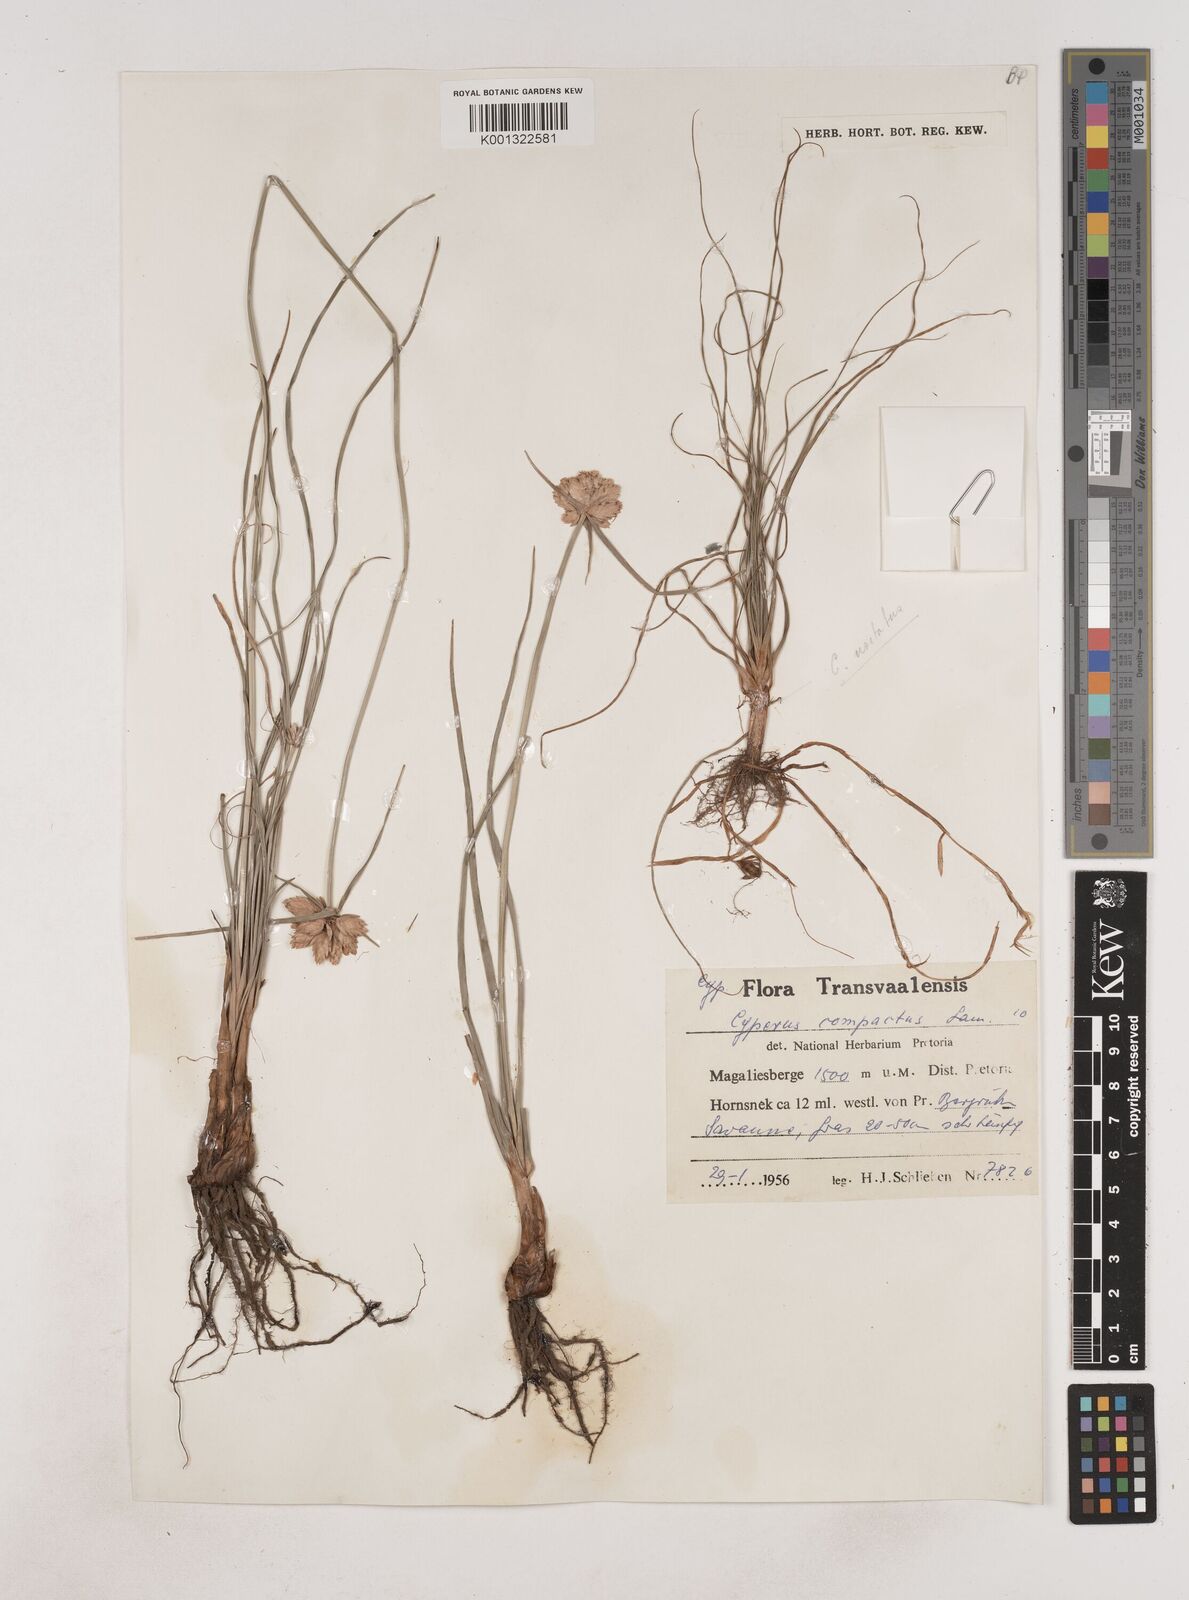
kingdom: Plantae
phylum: Tracheophyta
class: Liliopsida
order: Poales
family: Cyperaceae
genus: Cyperus
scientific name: Cyperus niveus
